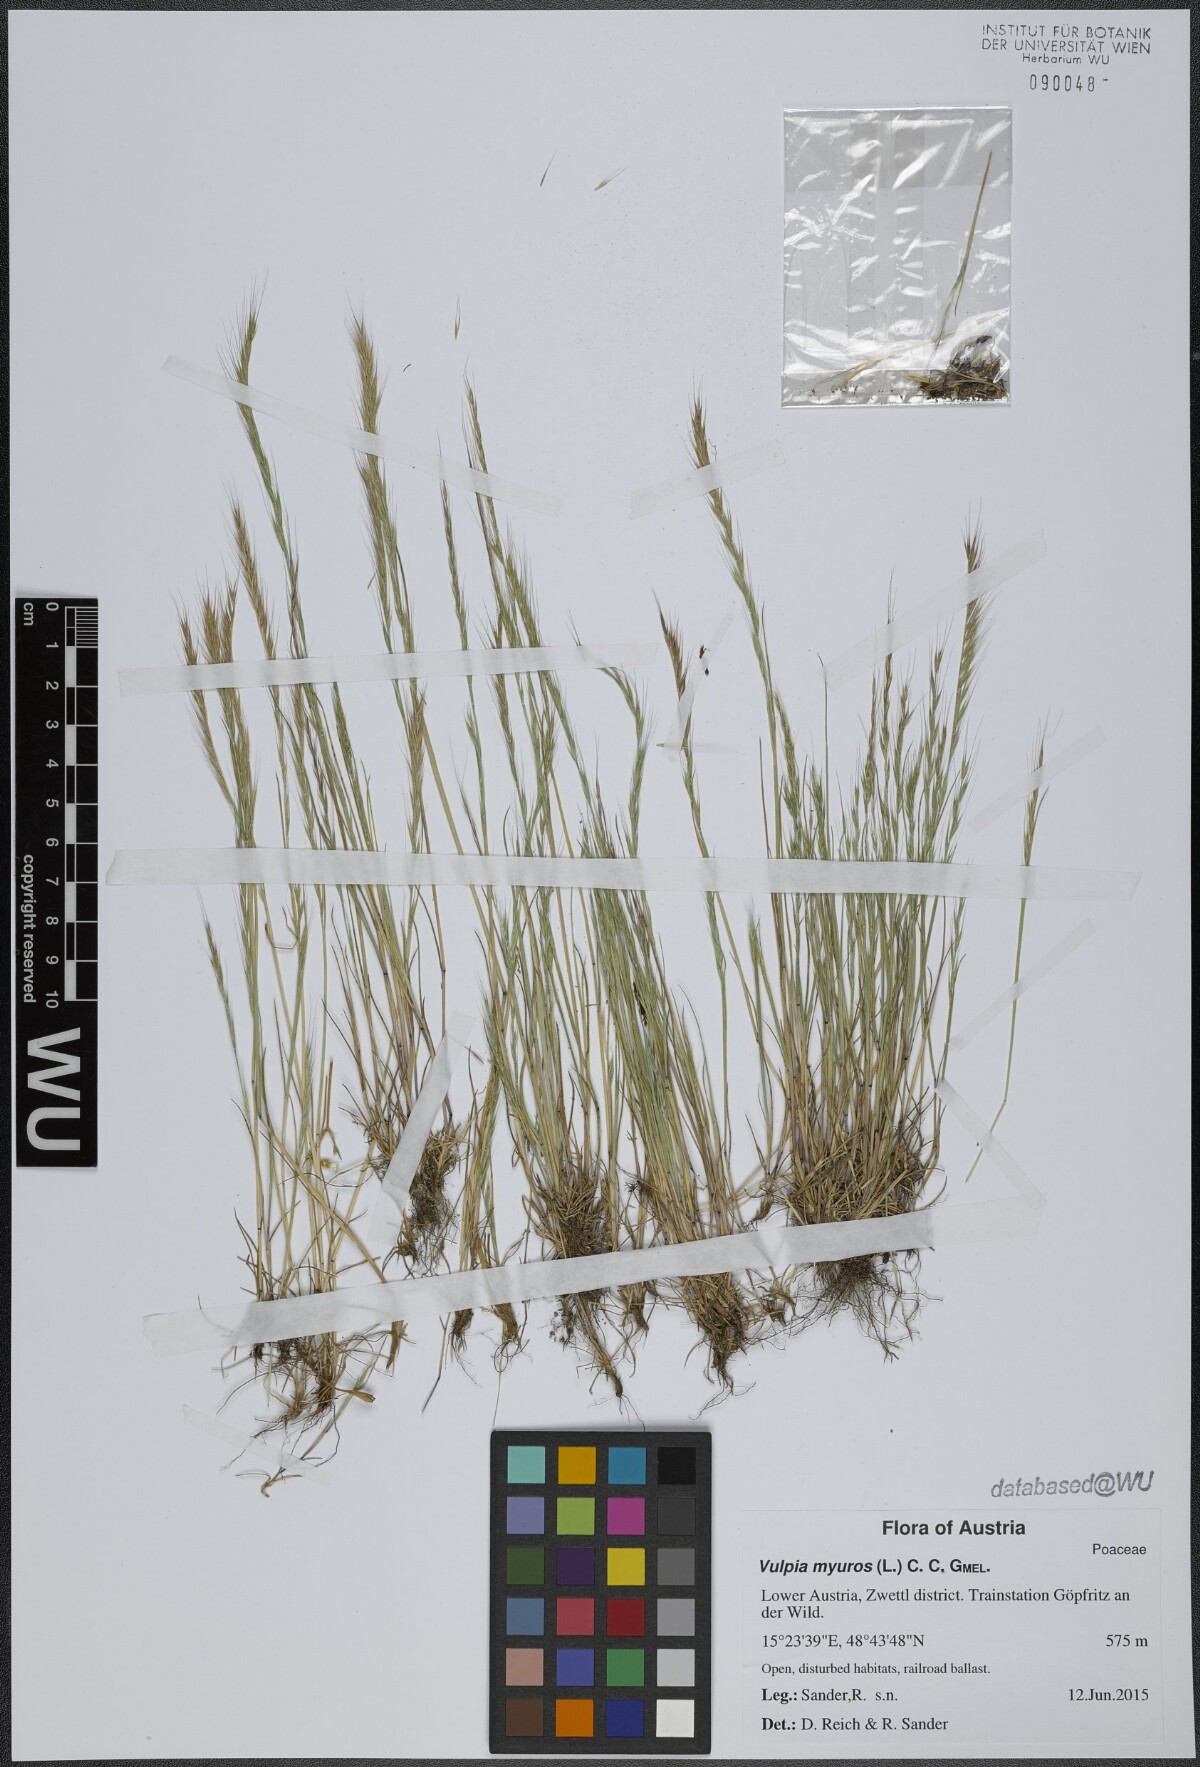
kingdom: Plantae
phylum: Tracheophyta
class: Liliopsida
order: Poales
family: Poaceae
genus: Festuca
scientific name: Festuca myuros
